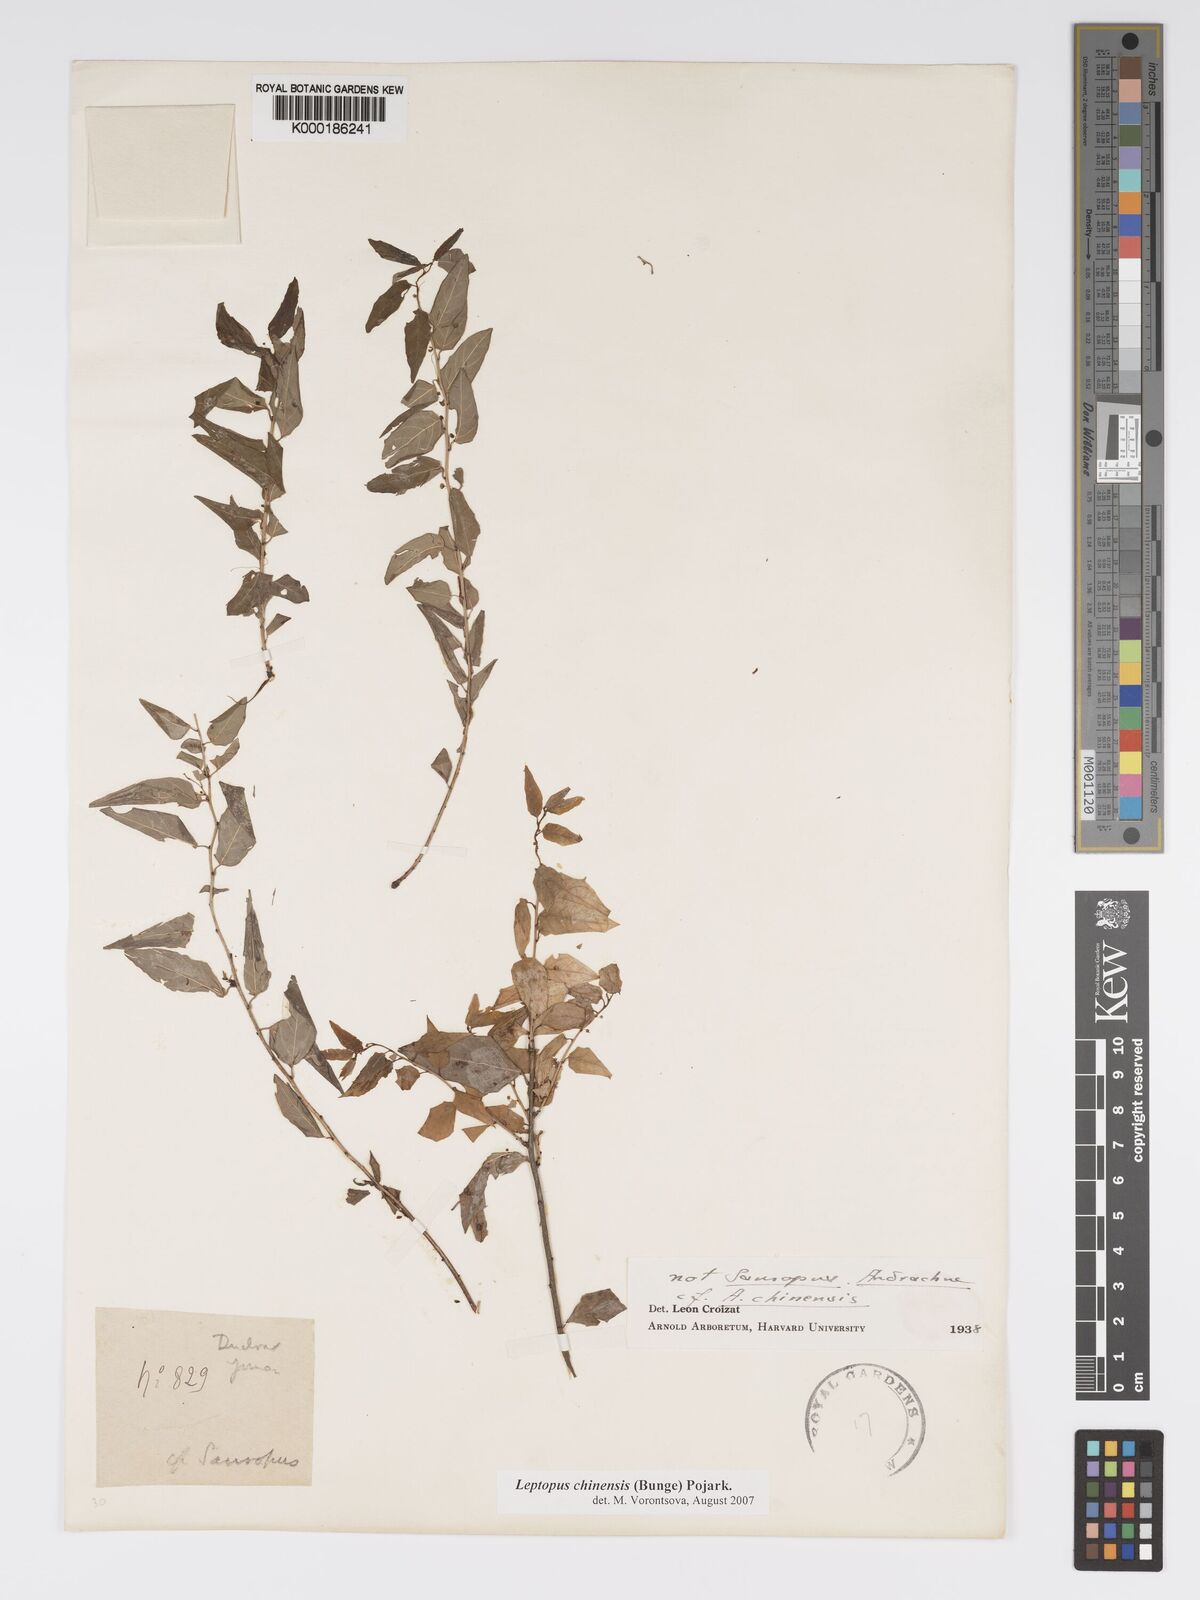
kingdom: Plantae
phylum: Tracheophyta
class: Magnoliopsida
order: Malpighiales
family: Phyllanthaceae
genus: Leptopus
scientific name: Leptopus chinensis
